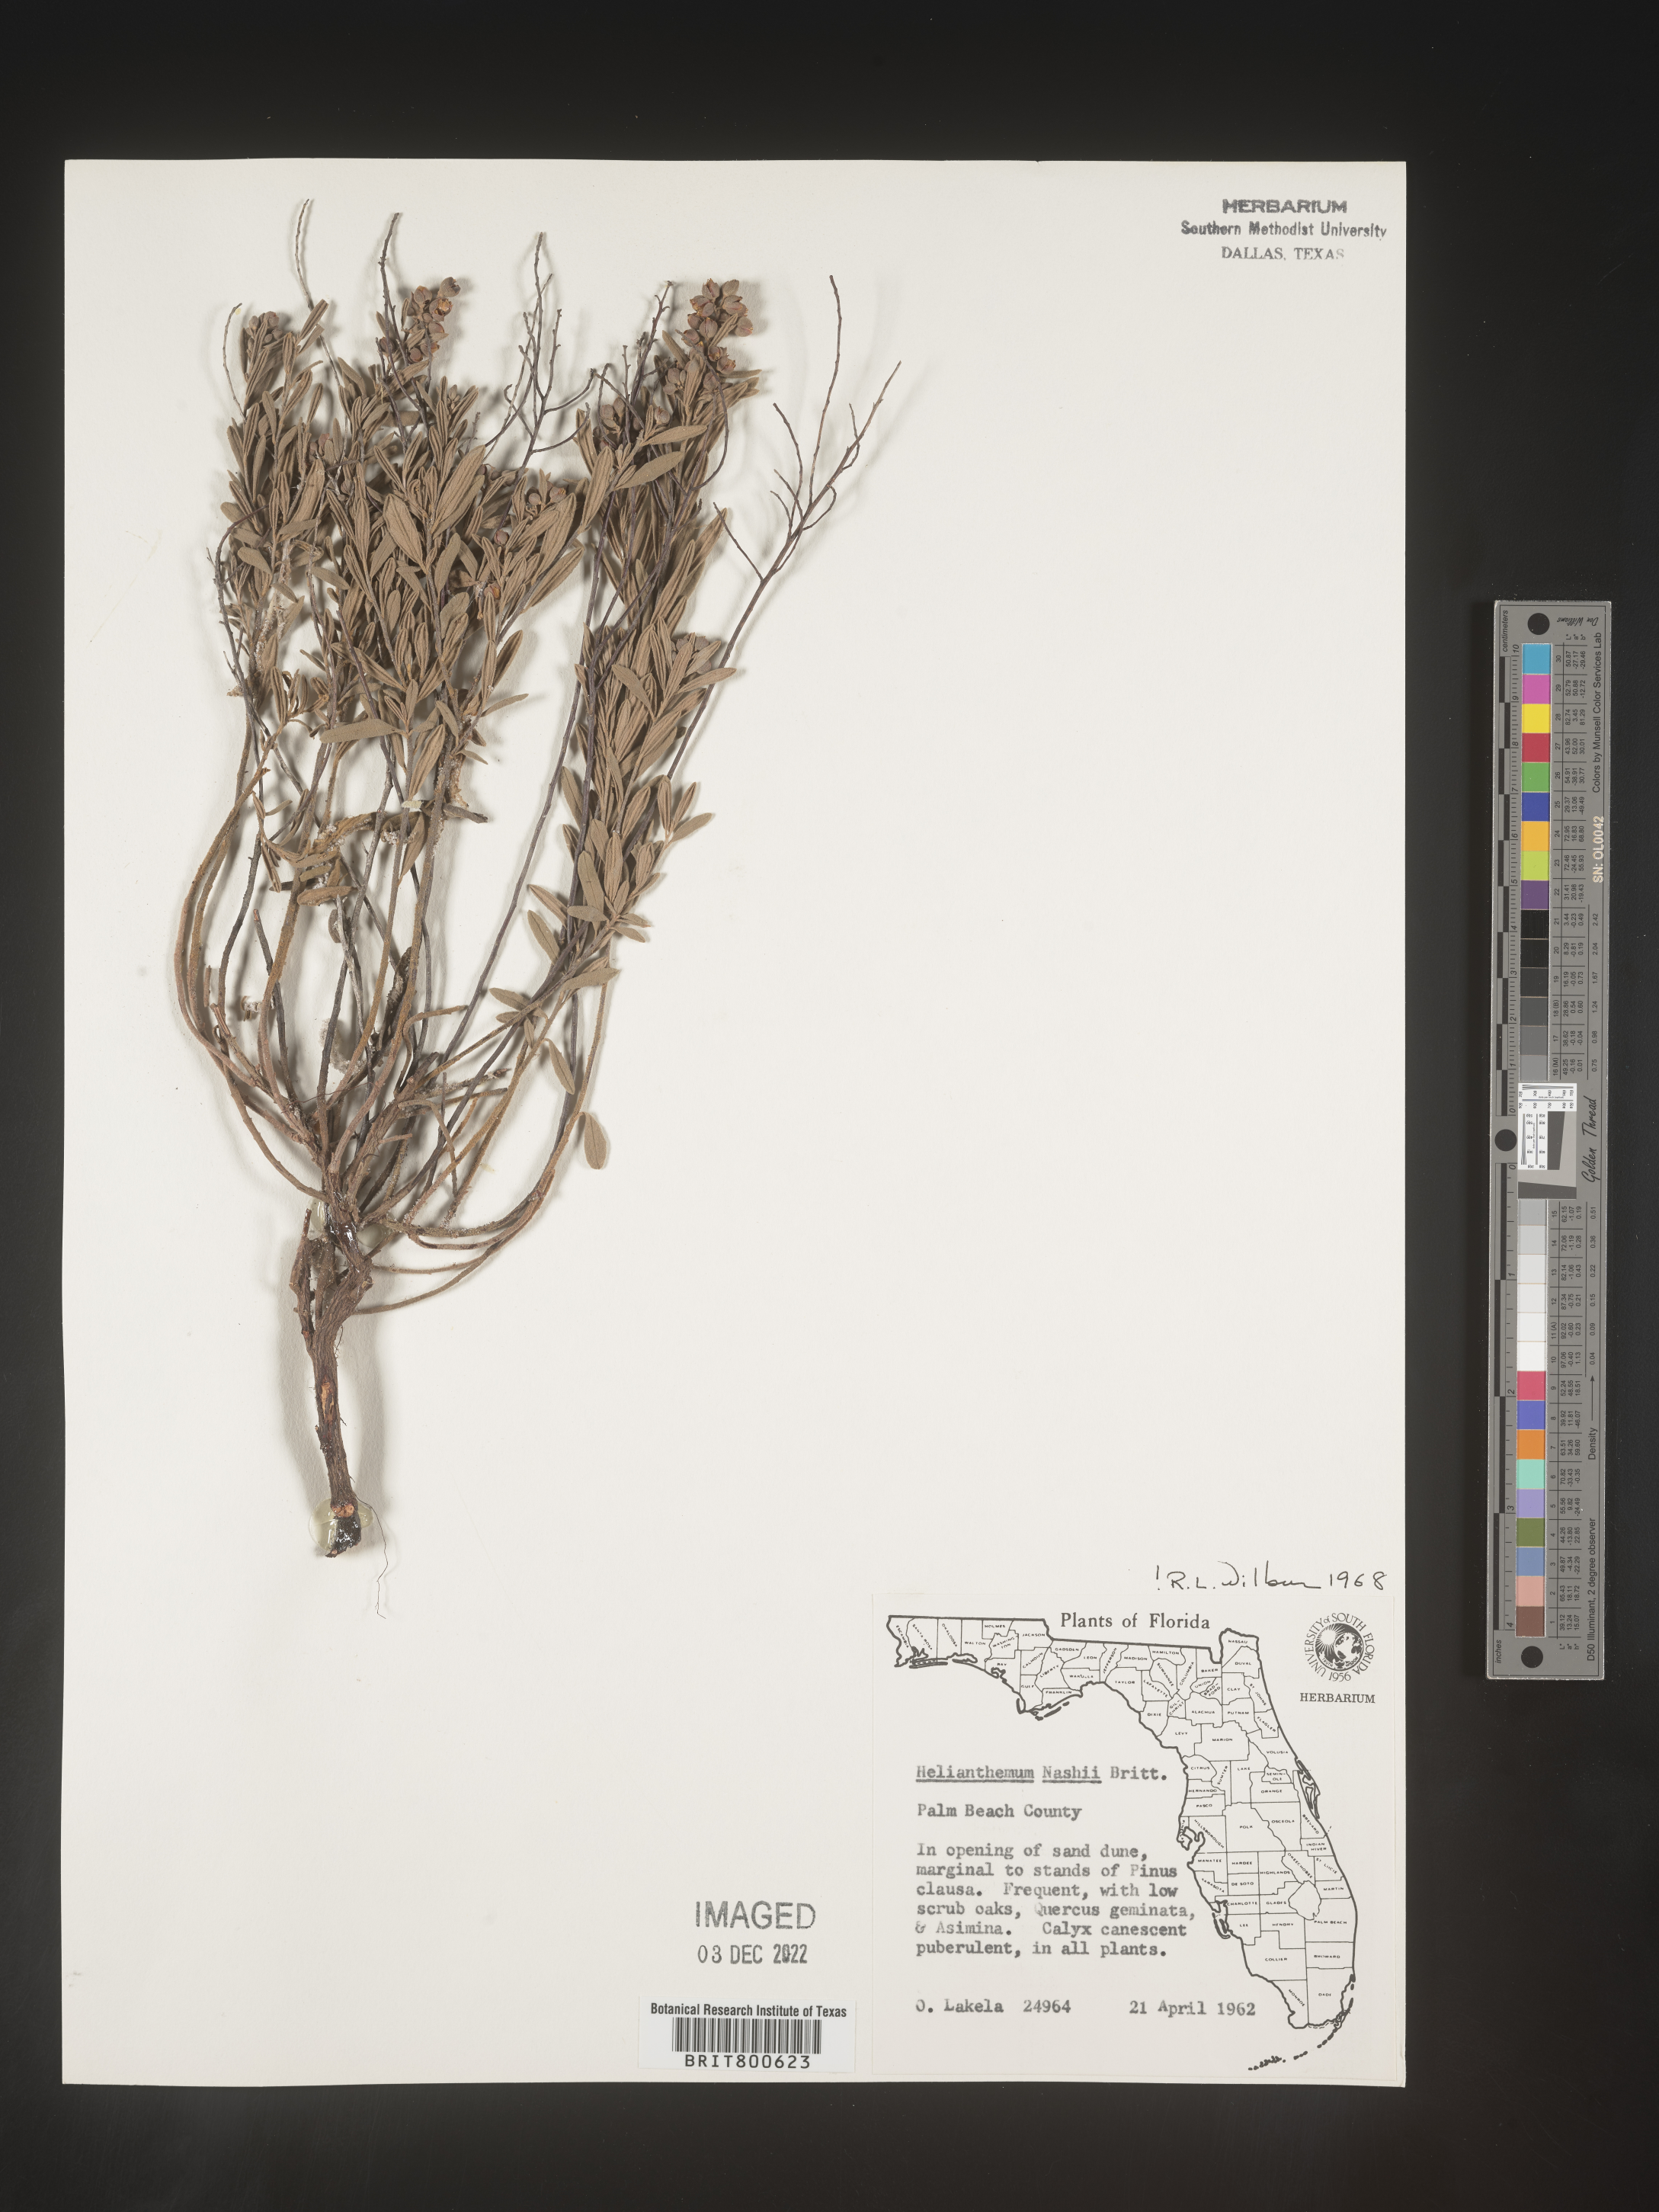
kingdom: Plantae
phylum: Tracheophyta
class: Magnoliopsida
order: Malvales
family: Cistaceae
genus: Helianthemum
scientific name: Helianthemum
